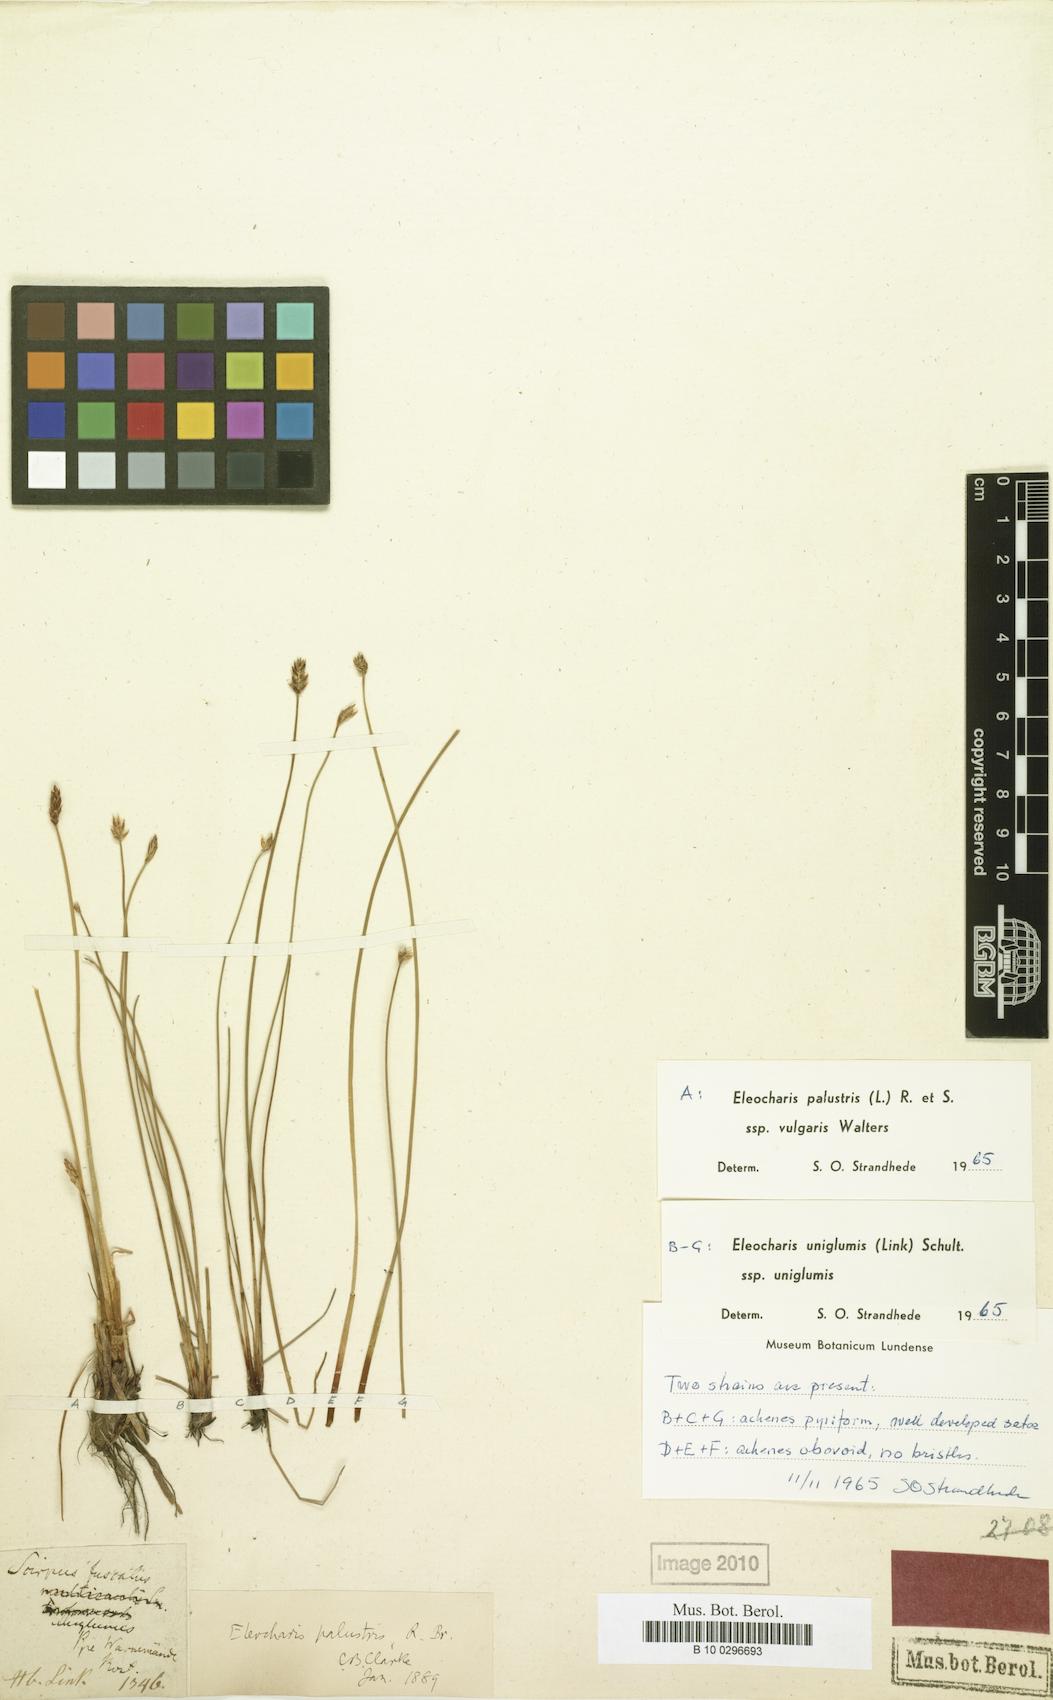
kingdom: Plantae
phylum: Tracheophyta
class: Liliopsida
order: Poales
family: Cyperaceae
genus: Eleocharis
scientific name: Eleocharis uniglumis
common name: Slender spike-rush
